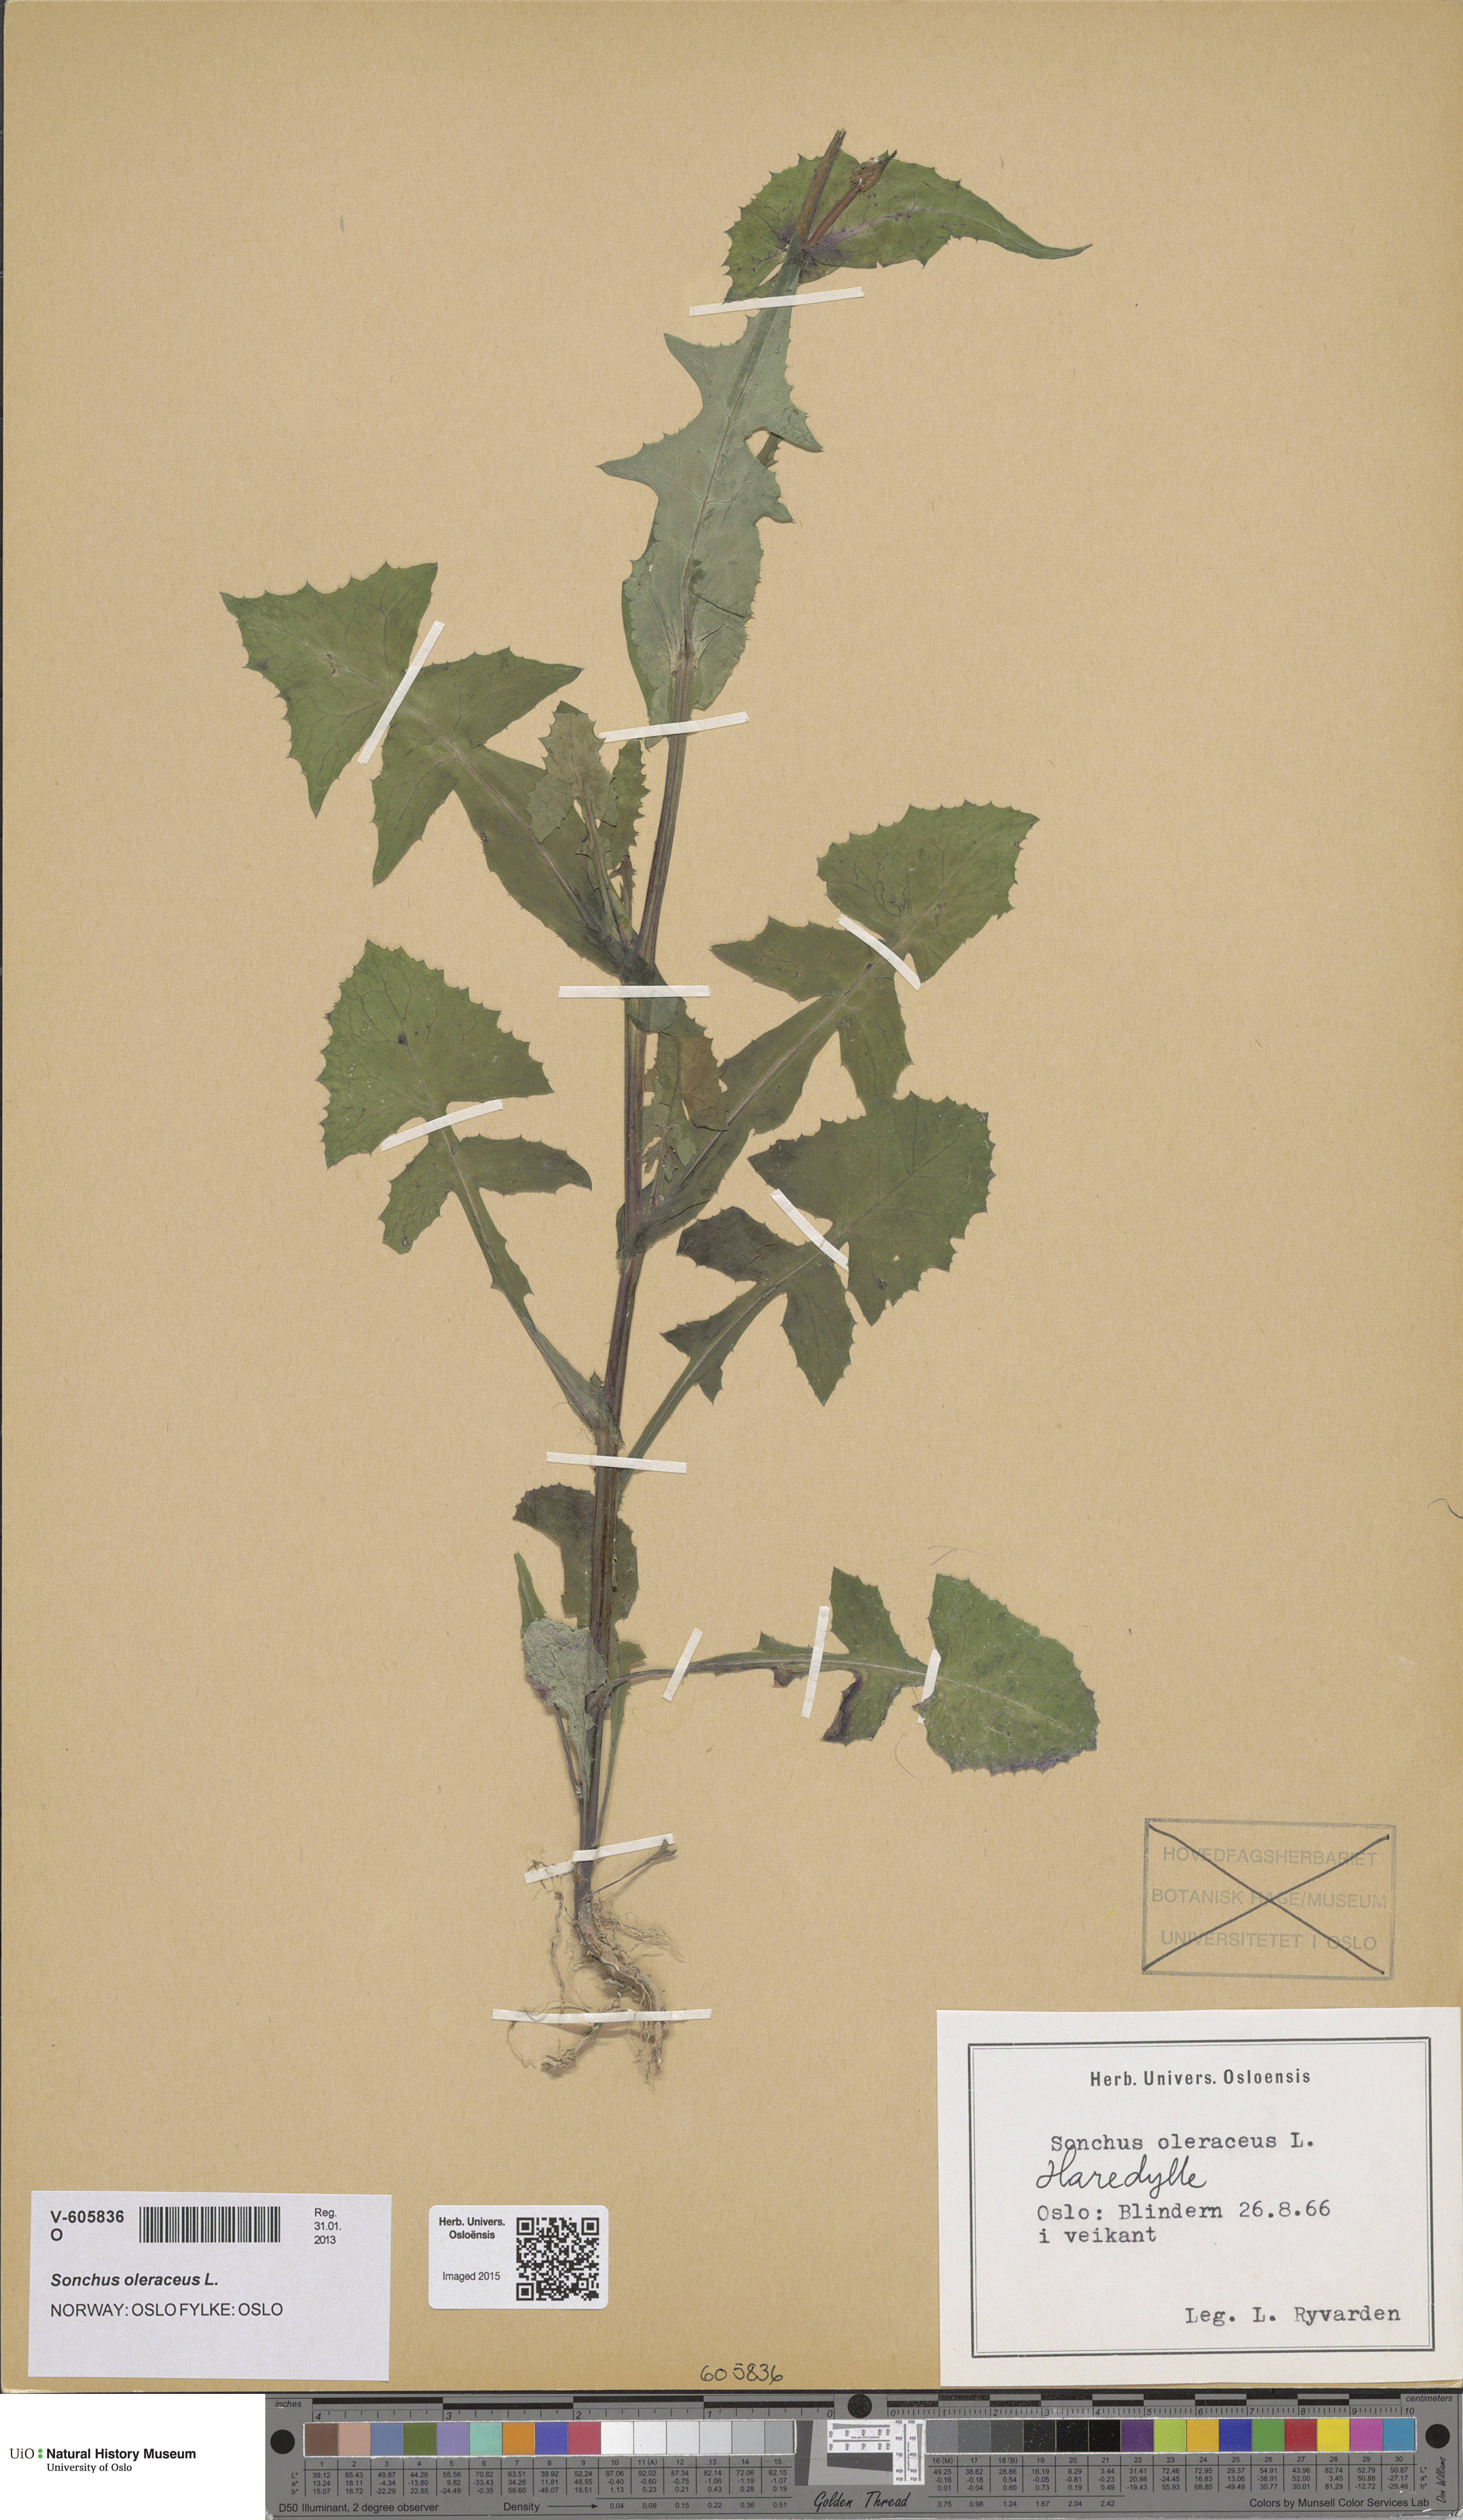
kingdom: Plantae
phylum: Tracheophyta
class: Magnoliopsida
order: Asterales
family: Asteraceae
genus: Sonchus
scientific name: Sonchus oleraceus
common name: Common sowthistle
